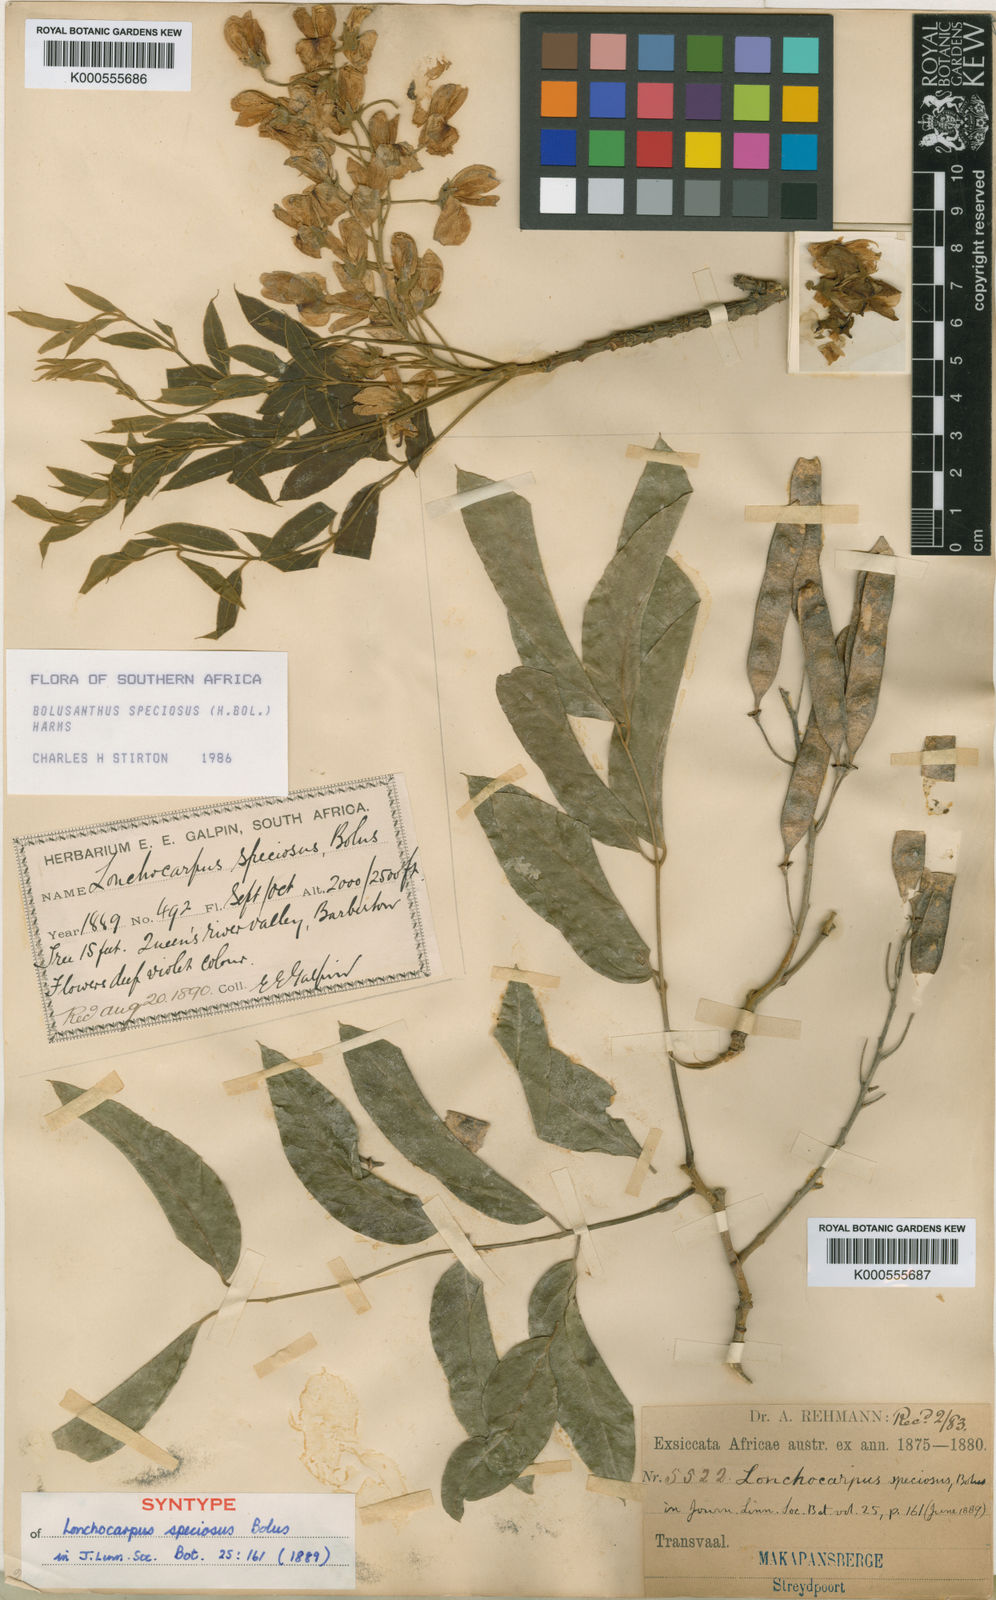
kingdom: Plantae
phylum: Tracheophyta
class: Magnoliopsida
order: Fabales
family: Fabaceae
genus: Bolusanthus
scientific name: Bolusanthus speciosus
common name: Tree wisteria
